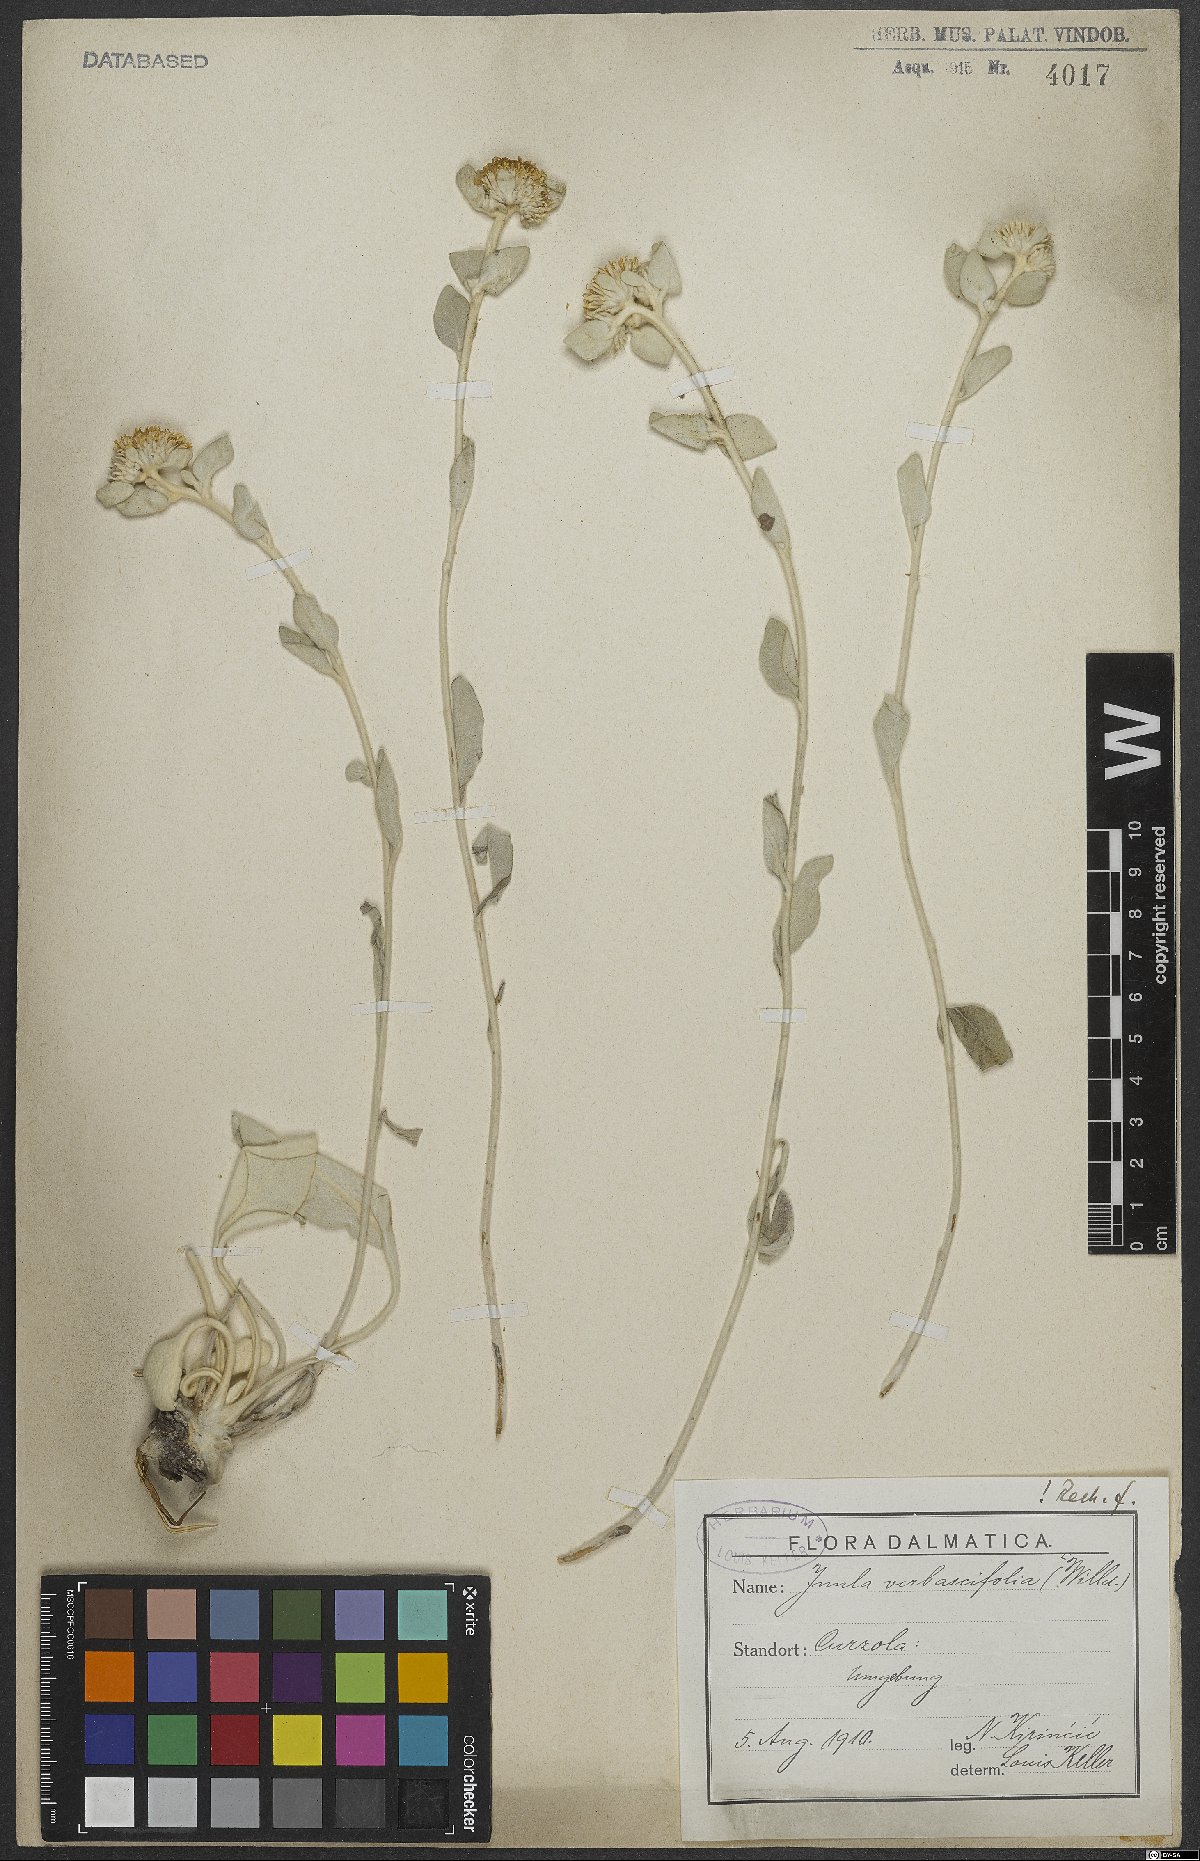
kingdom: Plantae
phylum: Tracheophyta
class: Magnoliopsida
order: Asterales
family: Asteraceae
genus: Pentanema
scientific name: Pentanema verbascifolium
